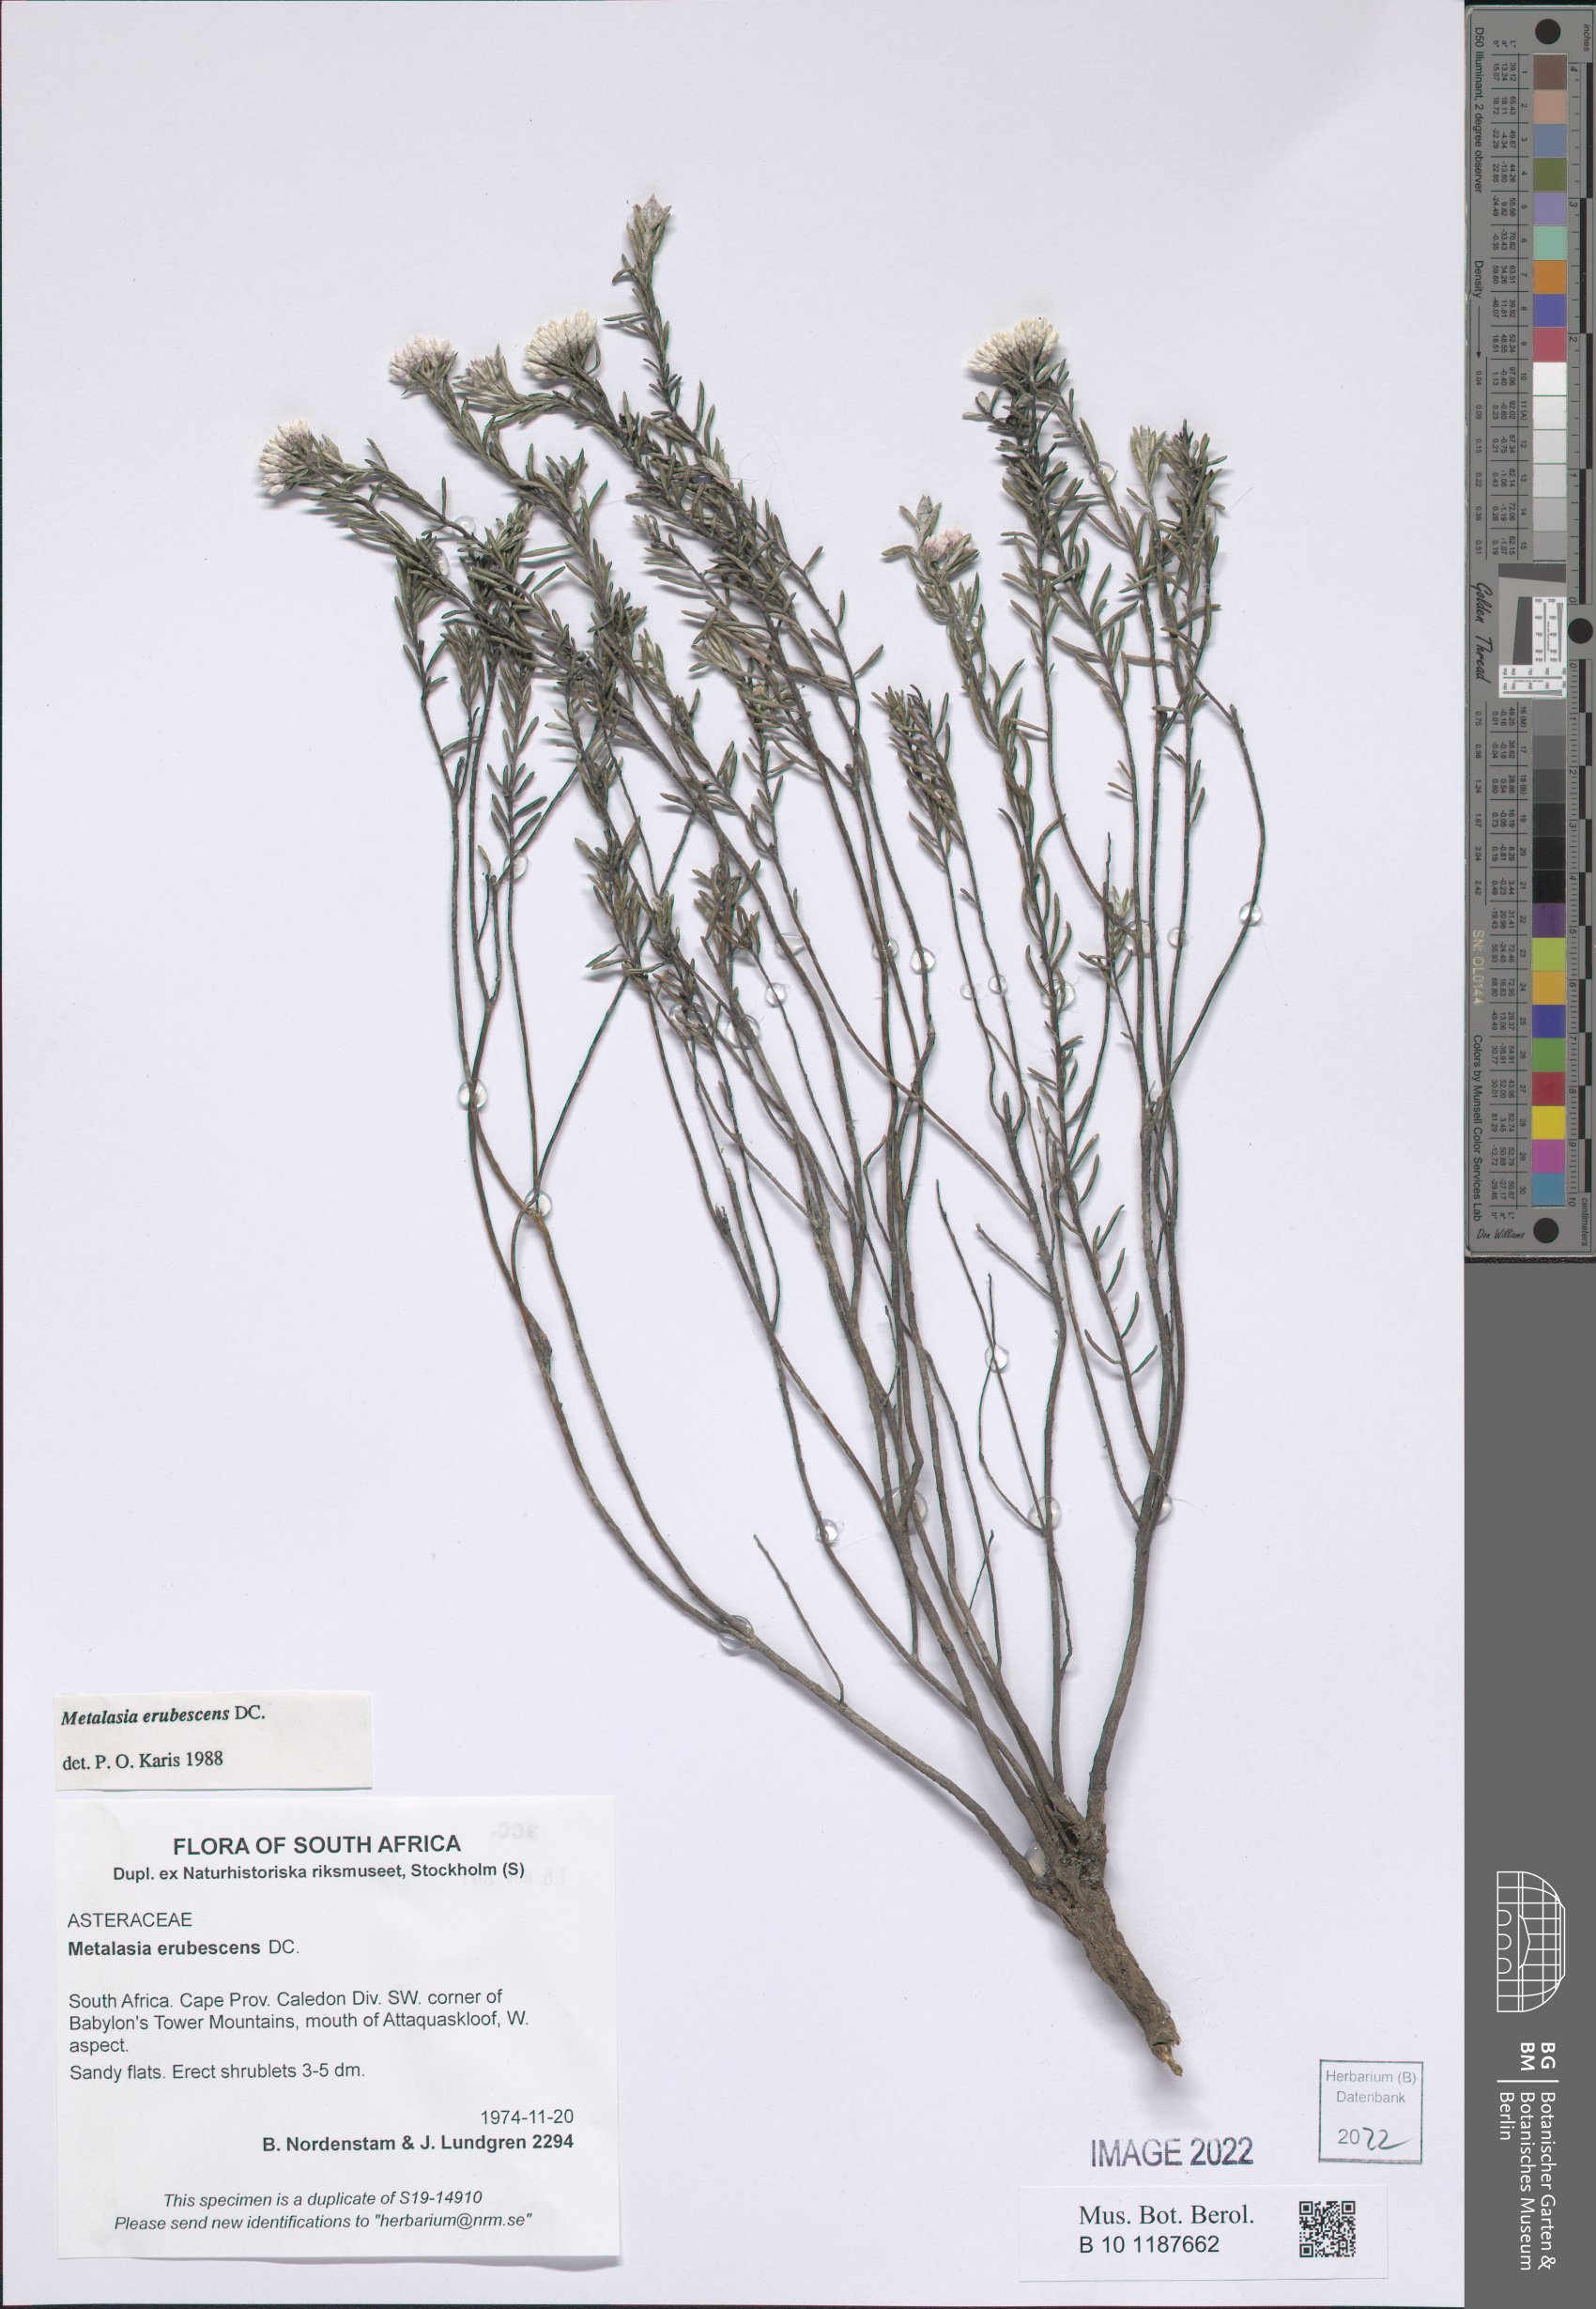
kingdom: Plantae
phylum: Tracheophyta
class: Magnoliopsida
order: Asterales
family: Asteraceae
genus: Metalasia
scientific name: Metalasia erubescens
